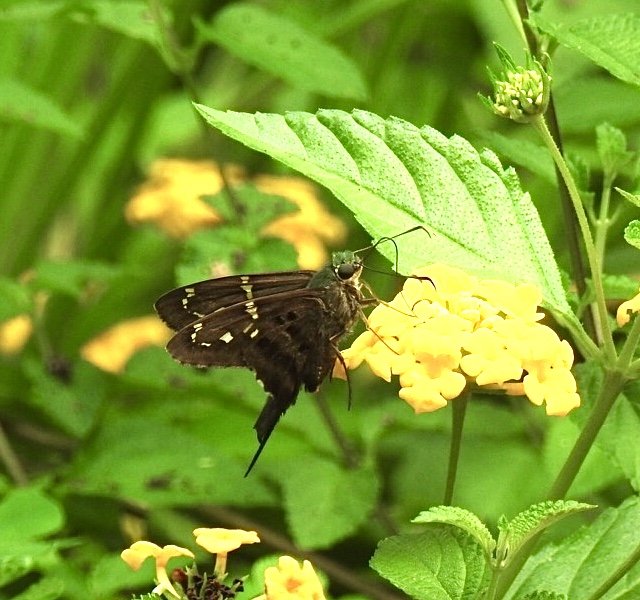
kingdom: Animalia
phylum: Arthropoda
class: Insecta
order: Lepidoptera
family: Hesperiidae
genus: Urbanus
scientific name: Urbanus proteus
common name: Long-tailed Skipper
